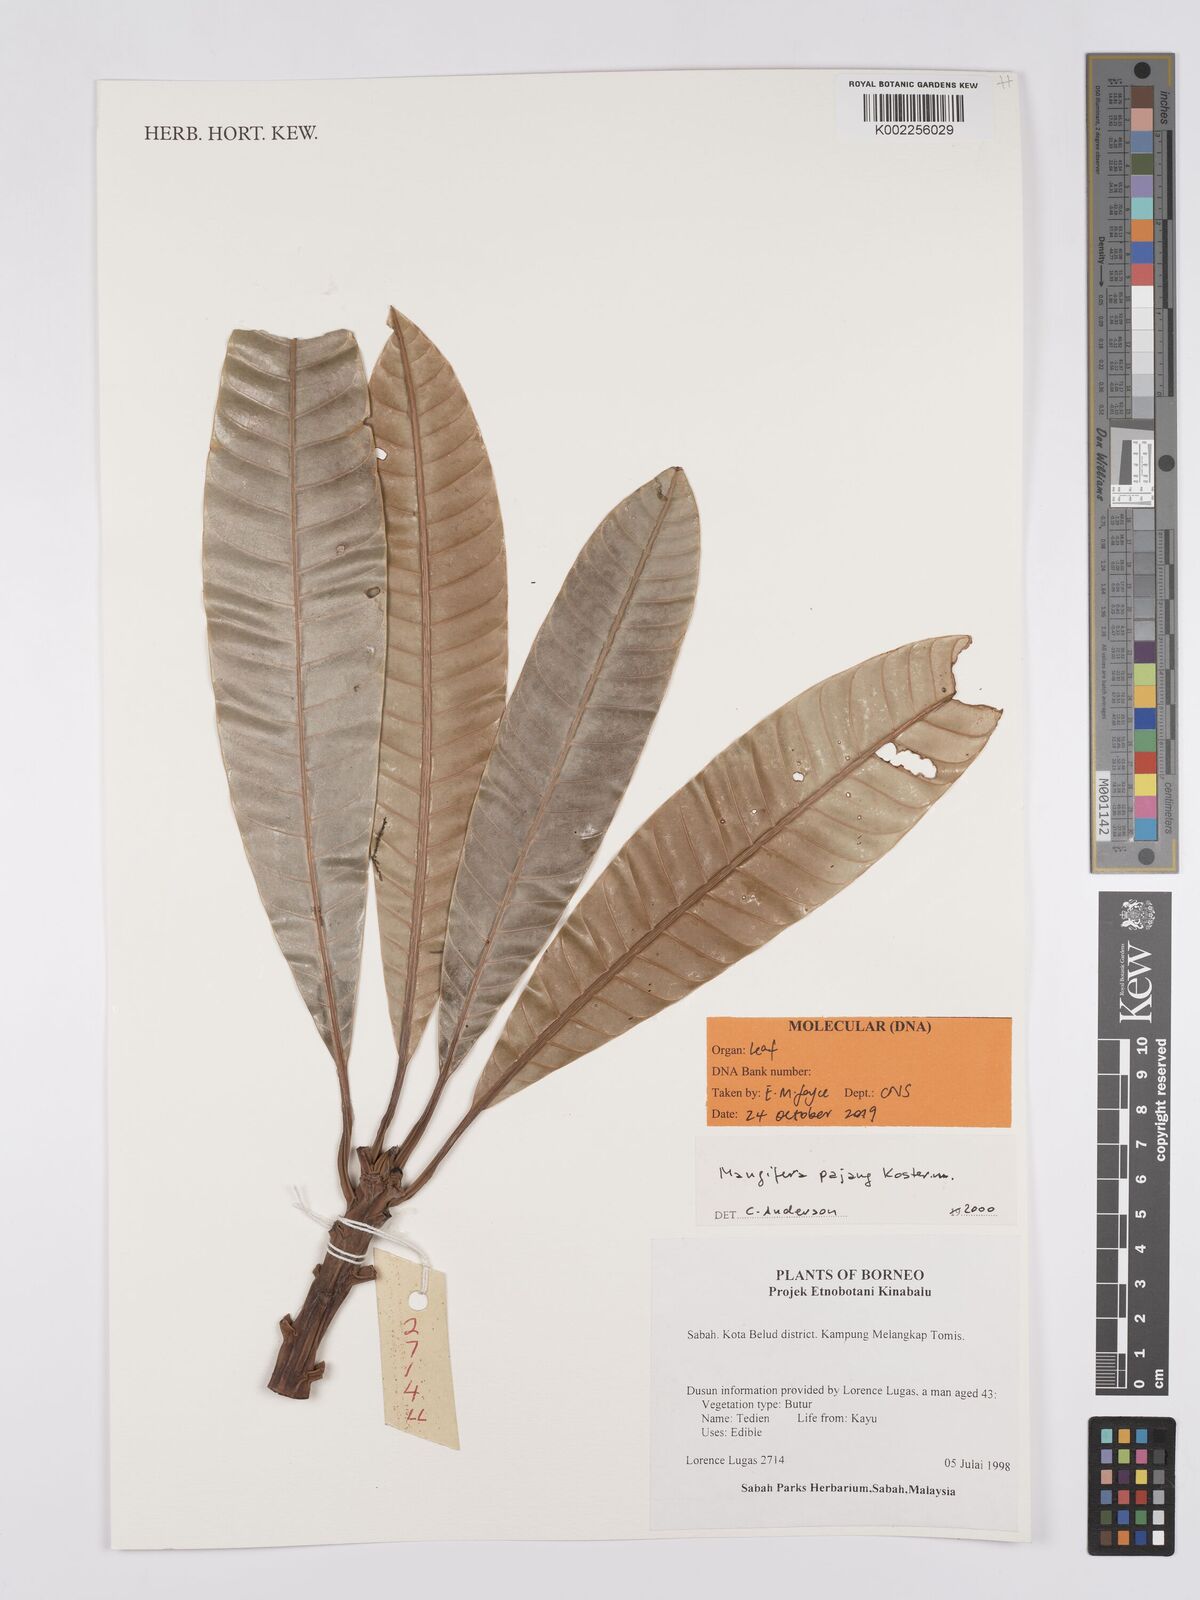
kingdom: Plantae
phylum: Tracheophyta
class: Magnoliopsida
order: Sapindales
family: Anacardiaceae
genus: Mangifera
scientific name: Mangifera pajang
